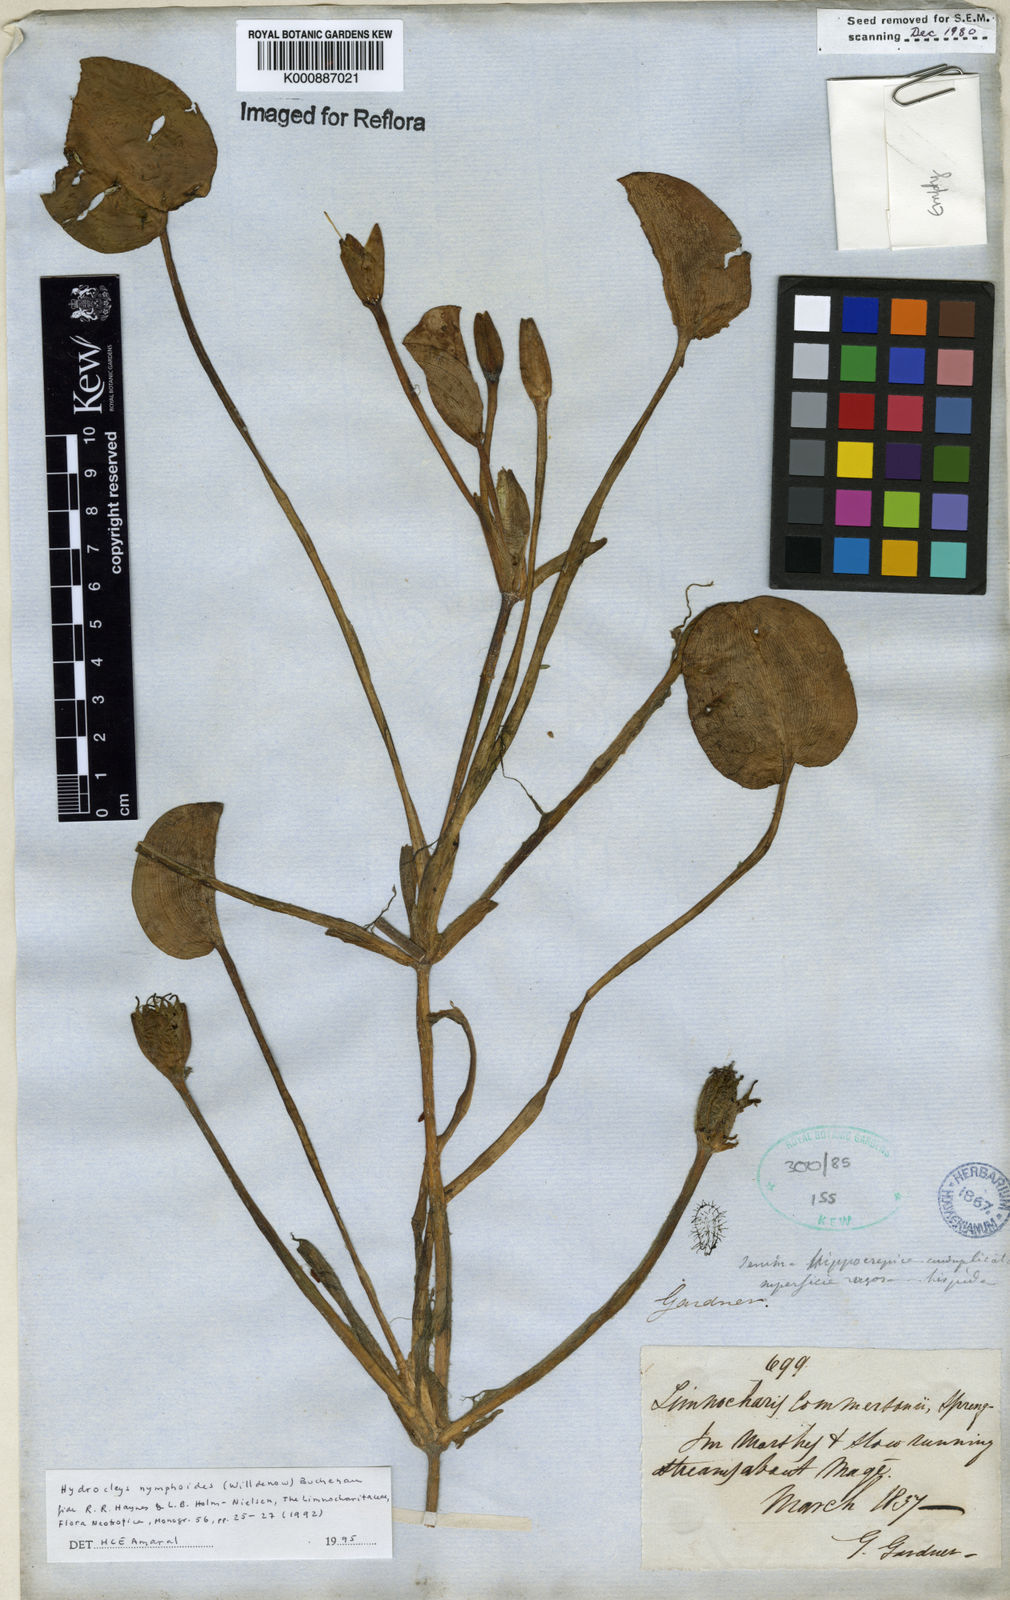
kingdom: Plantae
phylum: Tracheophyta
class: Liliopsida
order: Alismatales
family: Alismataceae
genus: Hydrocleys
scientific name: Hydrocleys nymphoides
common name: Water-poppy
